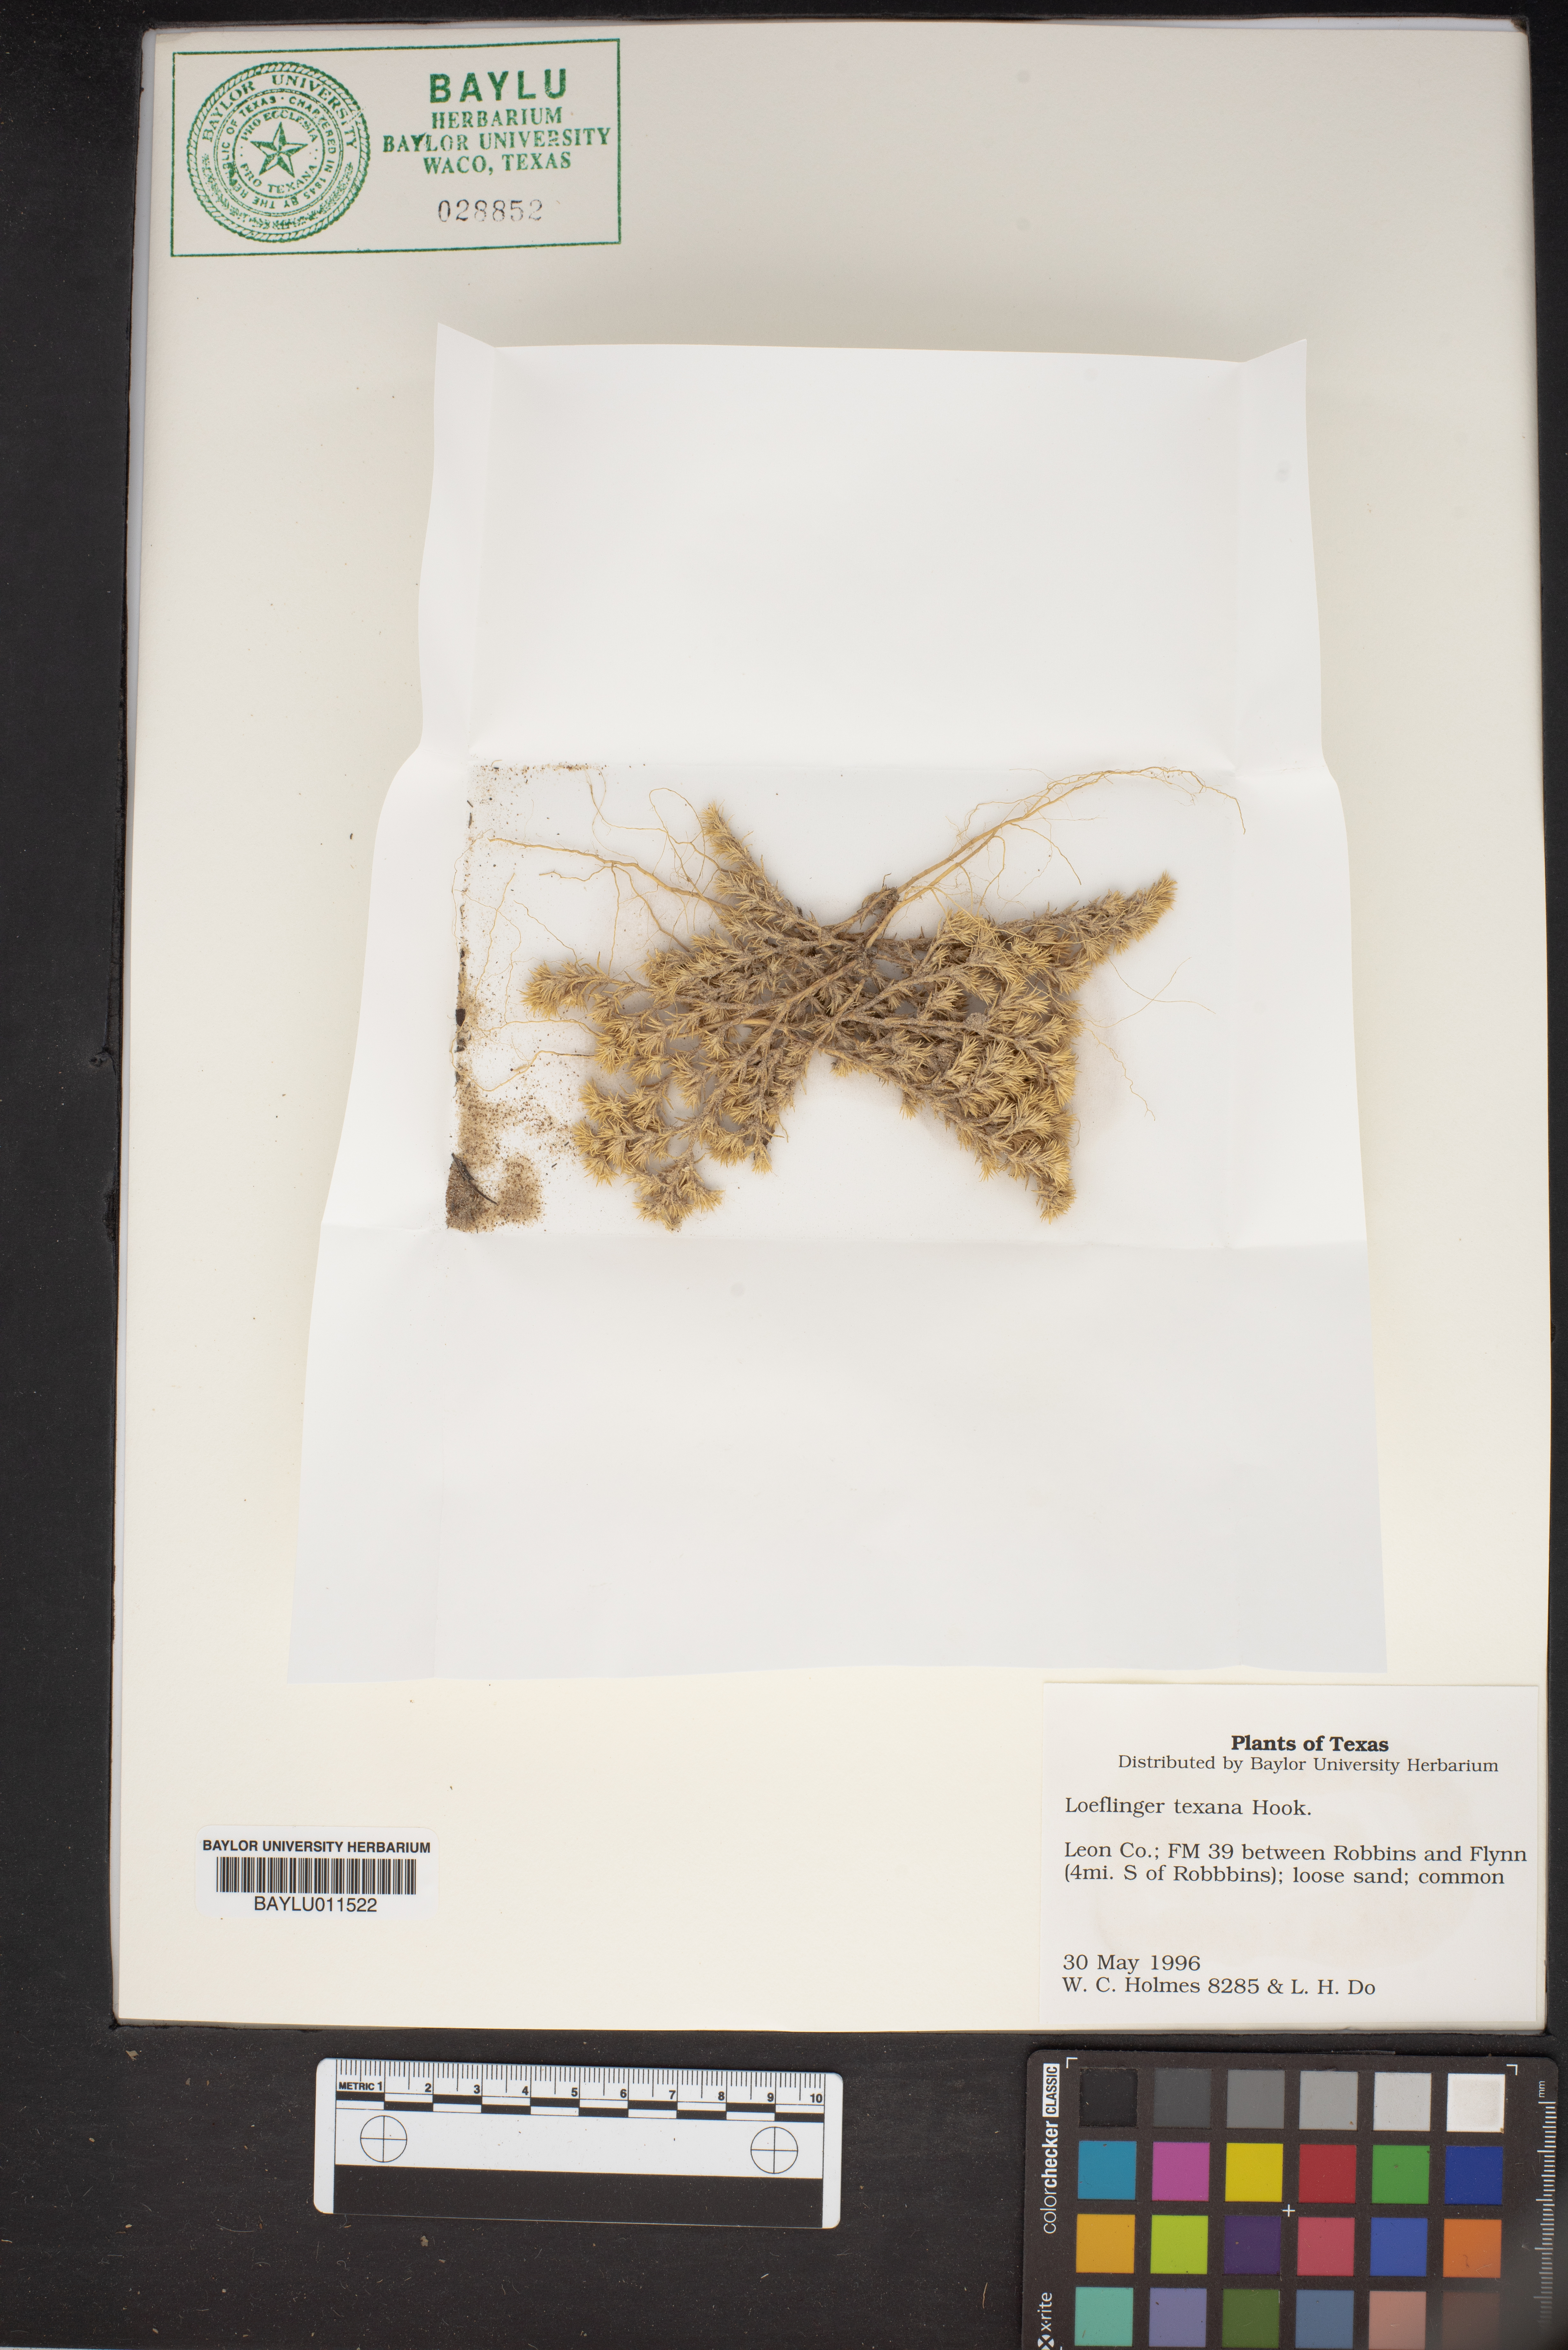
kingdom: Plantae
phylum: Tracheophyta
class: Magnoliopsida
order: Caryophyllales
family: Caryophyllaceae
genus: Loeflingia
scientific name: Loeflingia squarrosa
